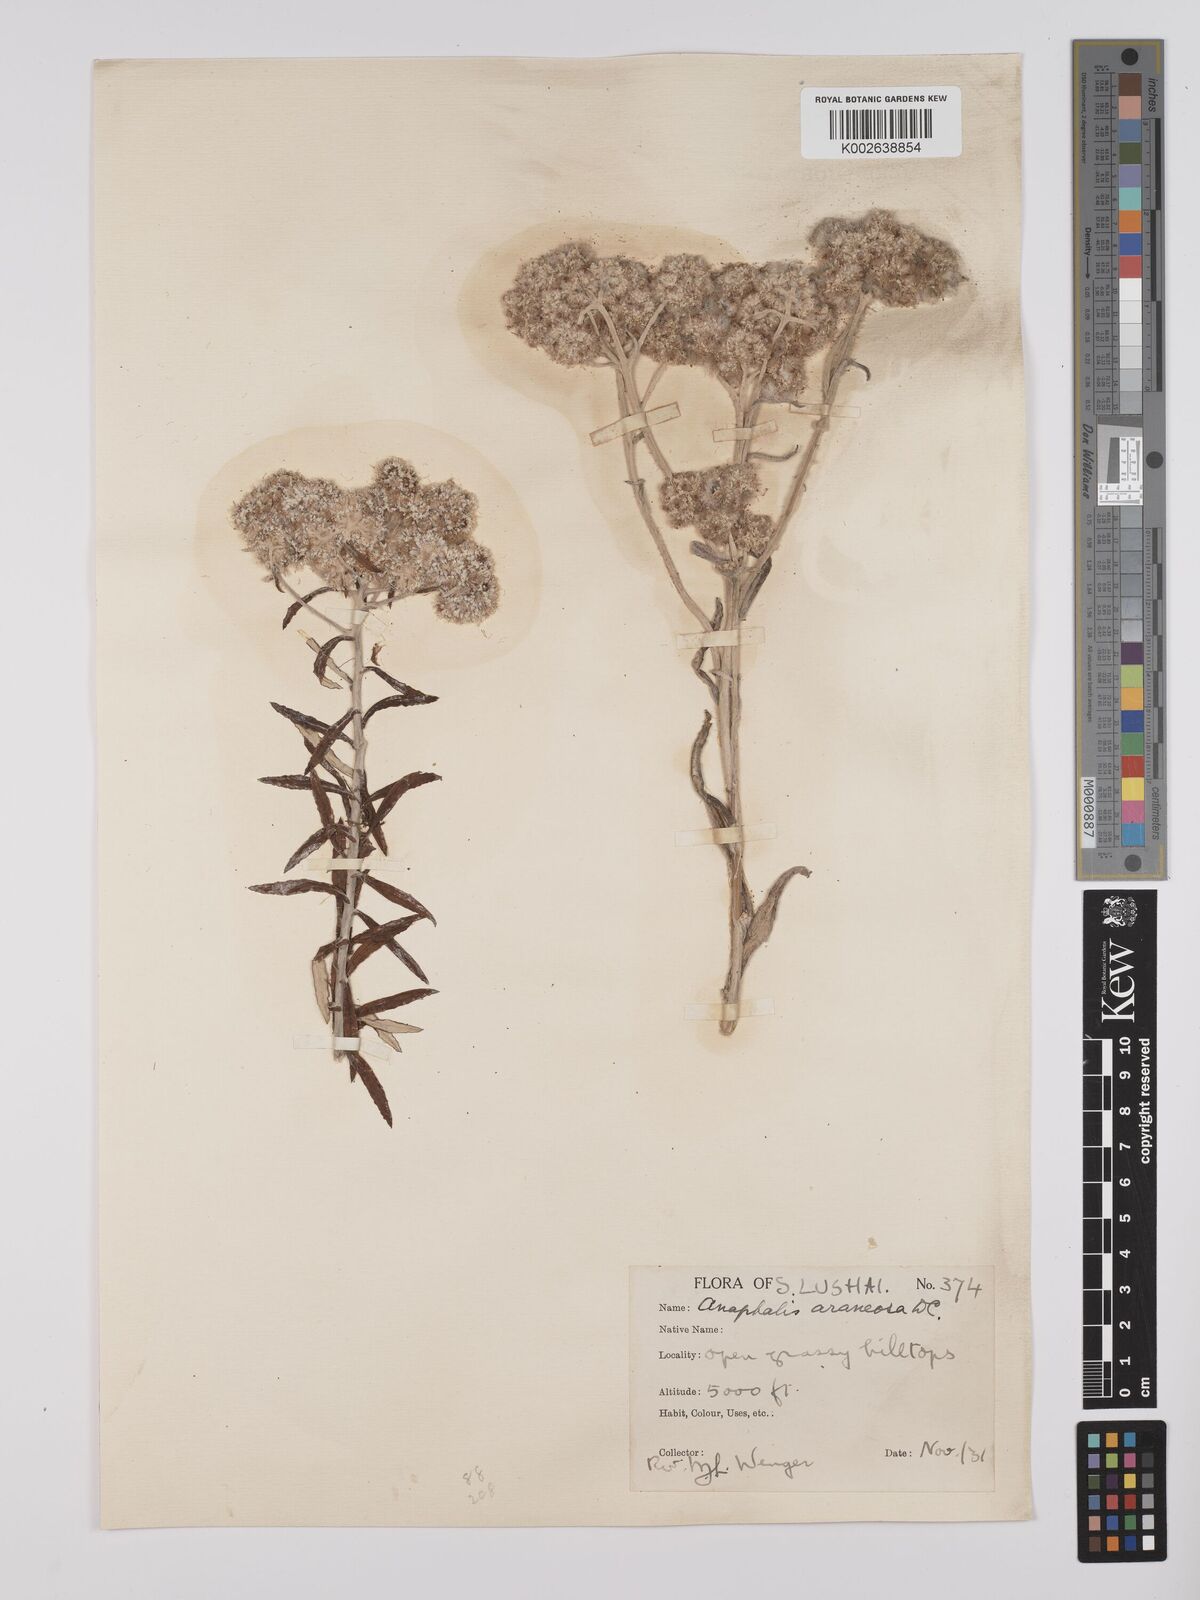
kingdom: Plantae
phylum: Tracheophyta
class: Magnoliopsida
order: Asterales
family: Asteraceae
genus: Anaphalis
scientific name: Anaphalis busua
